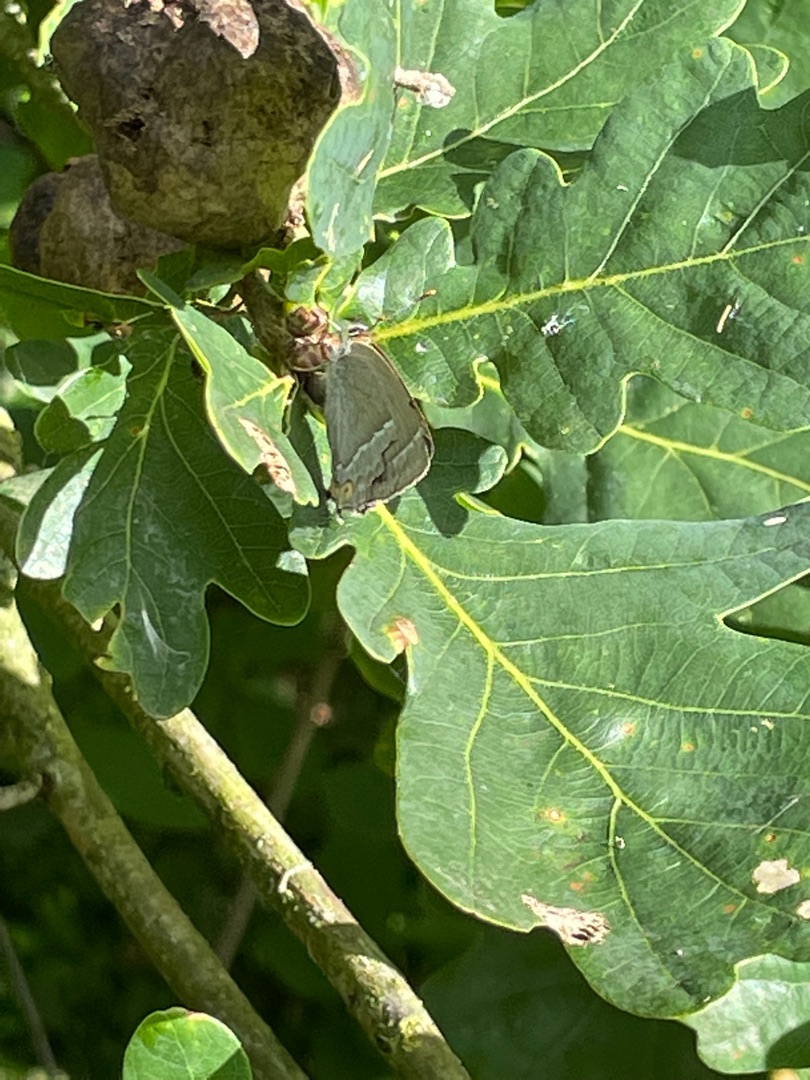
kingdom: Animalia
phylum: Arthropoda
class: Insecta
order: Lepidoptera
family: Lycaenidae
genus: Quercusia
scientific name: Quercusia quercus
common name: Blåhale
